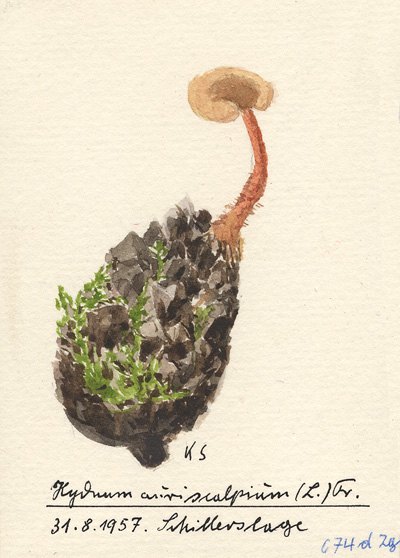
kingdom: Fungi
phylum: Basidiomycota
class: Agaricomycetes
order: Russulales
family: Auriscalpiaceae
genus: Auriscalpium
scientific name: Auriscalpium vulgare
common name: Earpick fungus
